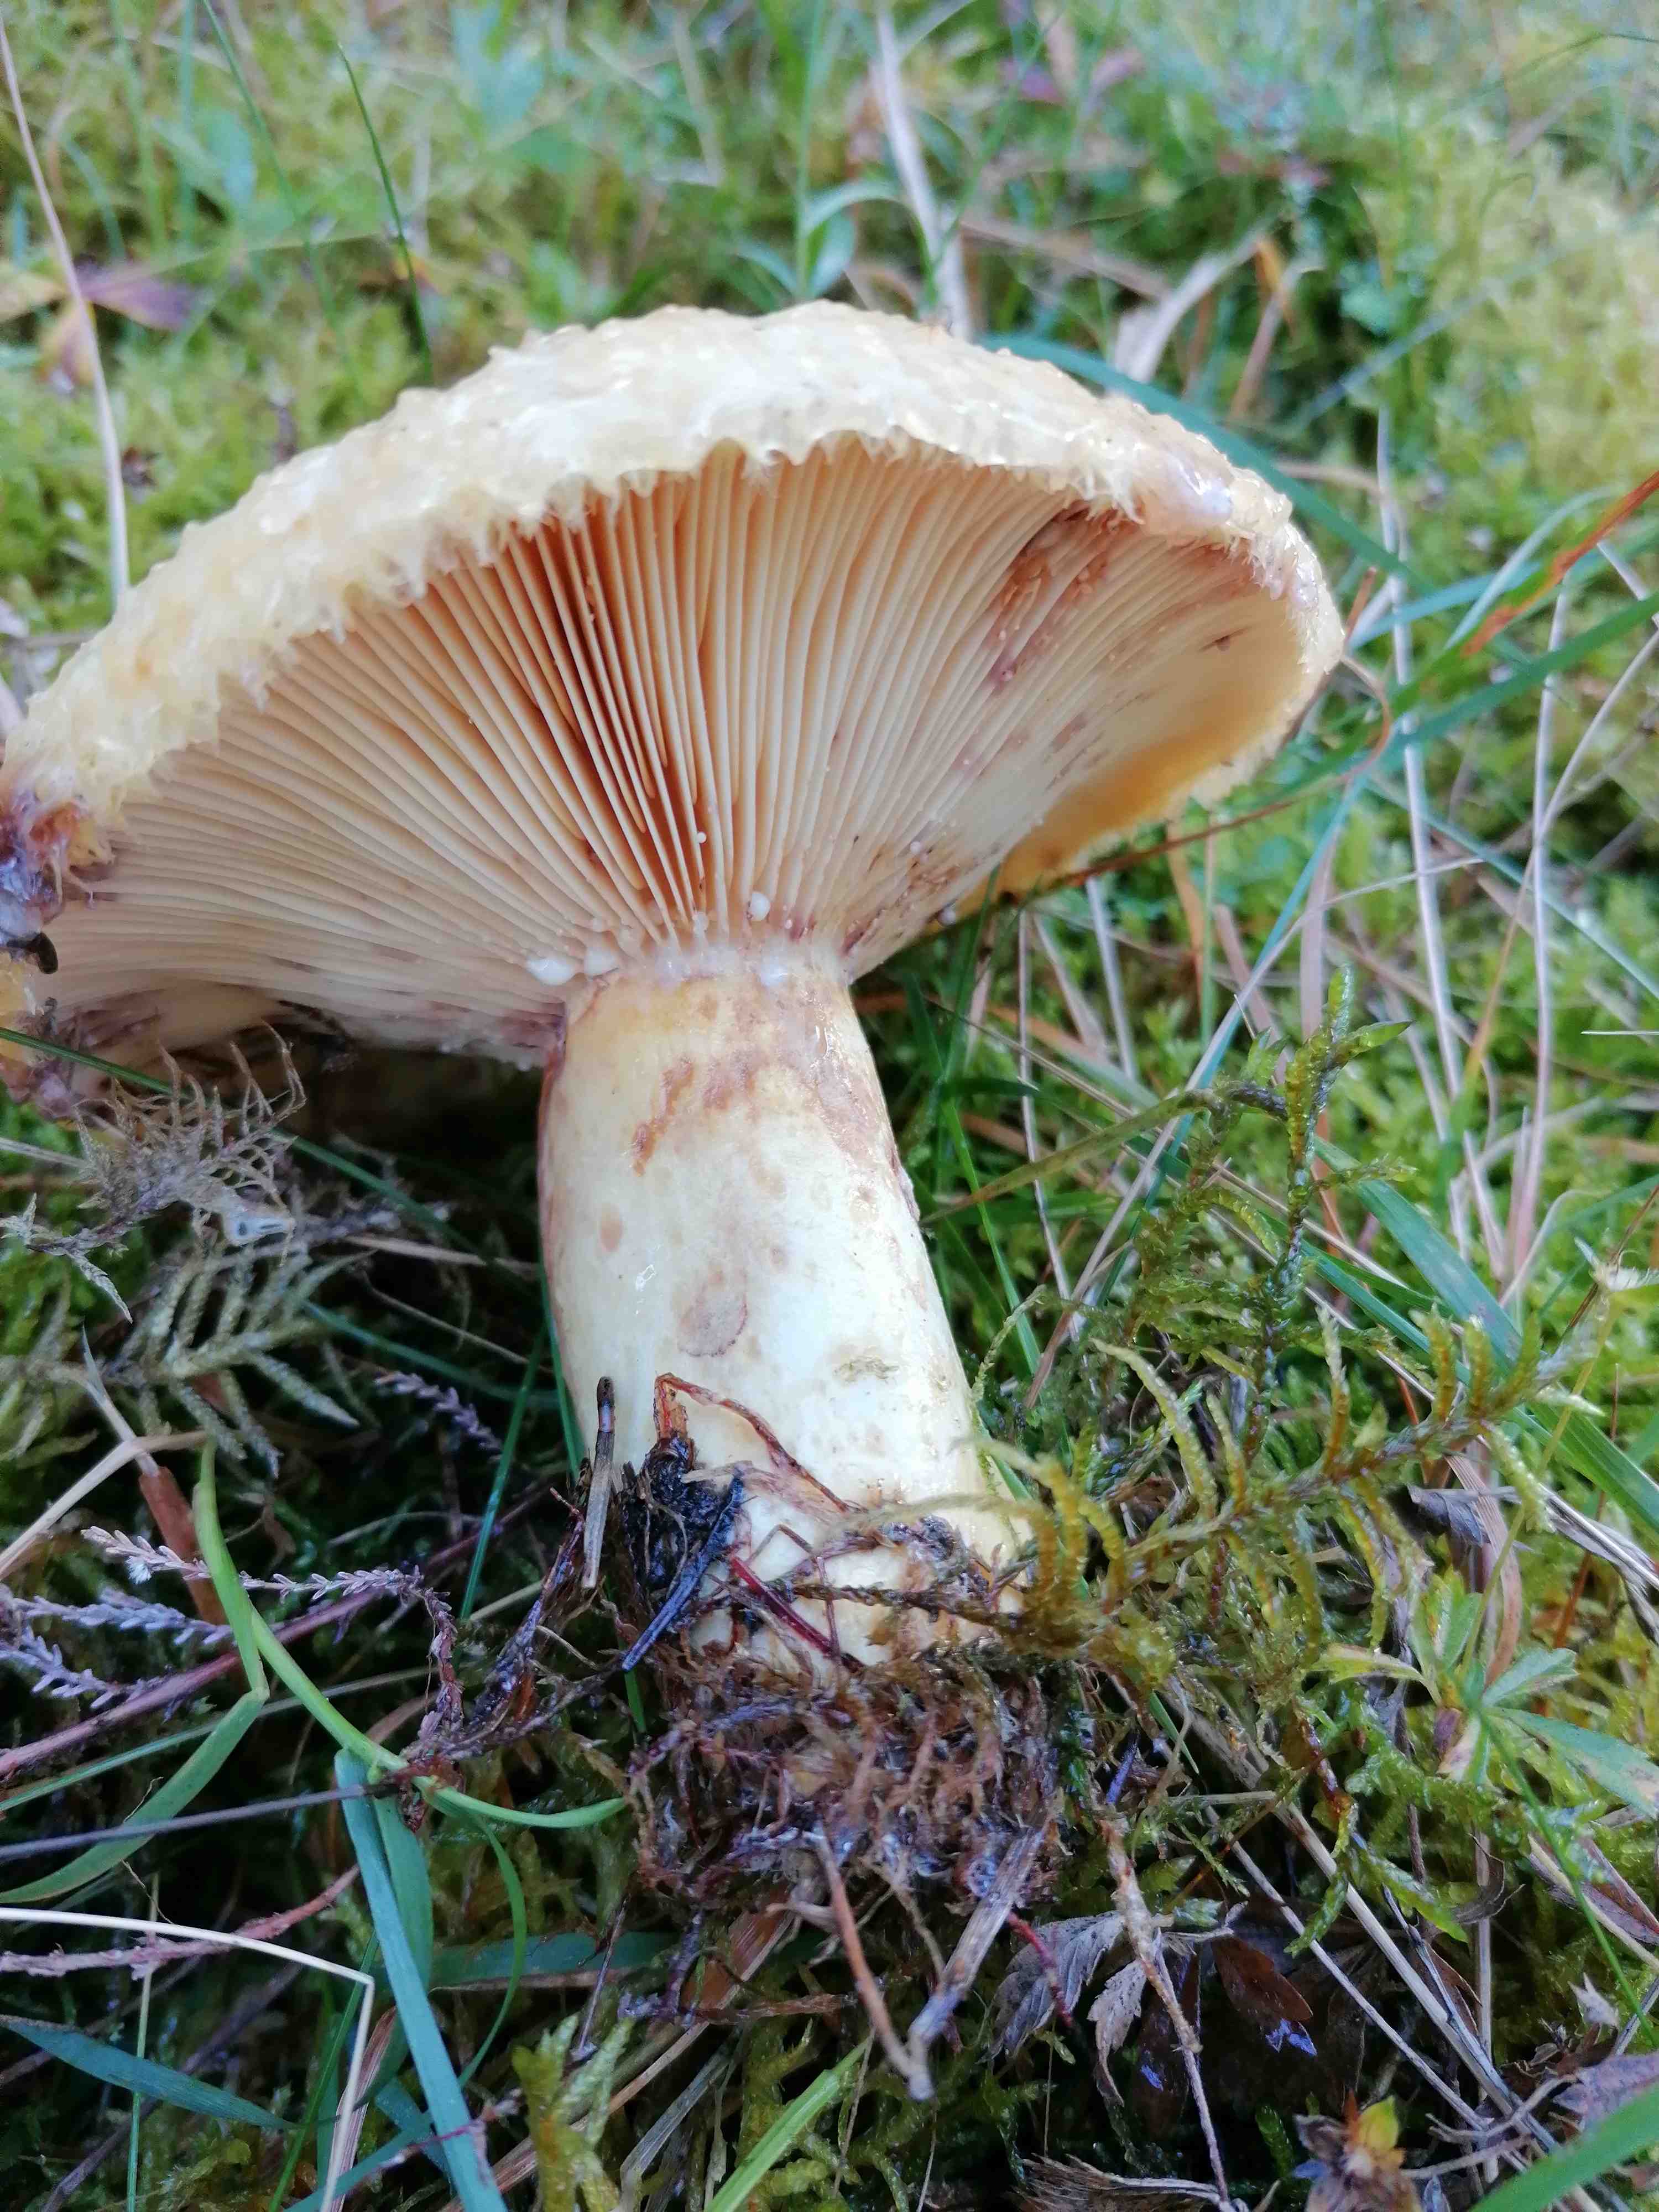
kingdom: Fungi
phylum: Basidiomycota
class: Agaricomycetes
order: Russulales
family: Russulaceae
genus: Lactarius
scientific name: Lactarius repraesentaneus
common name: prægtig mælkehat
